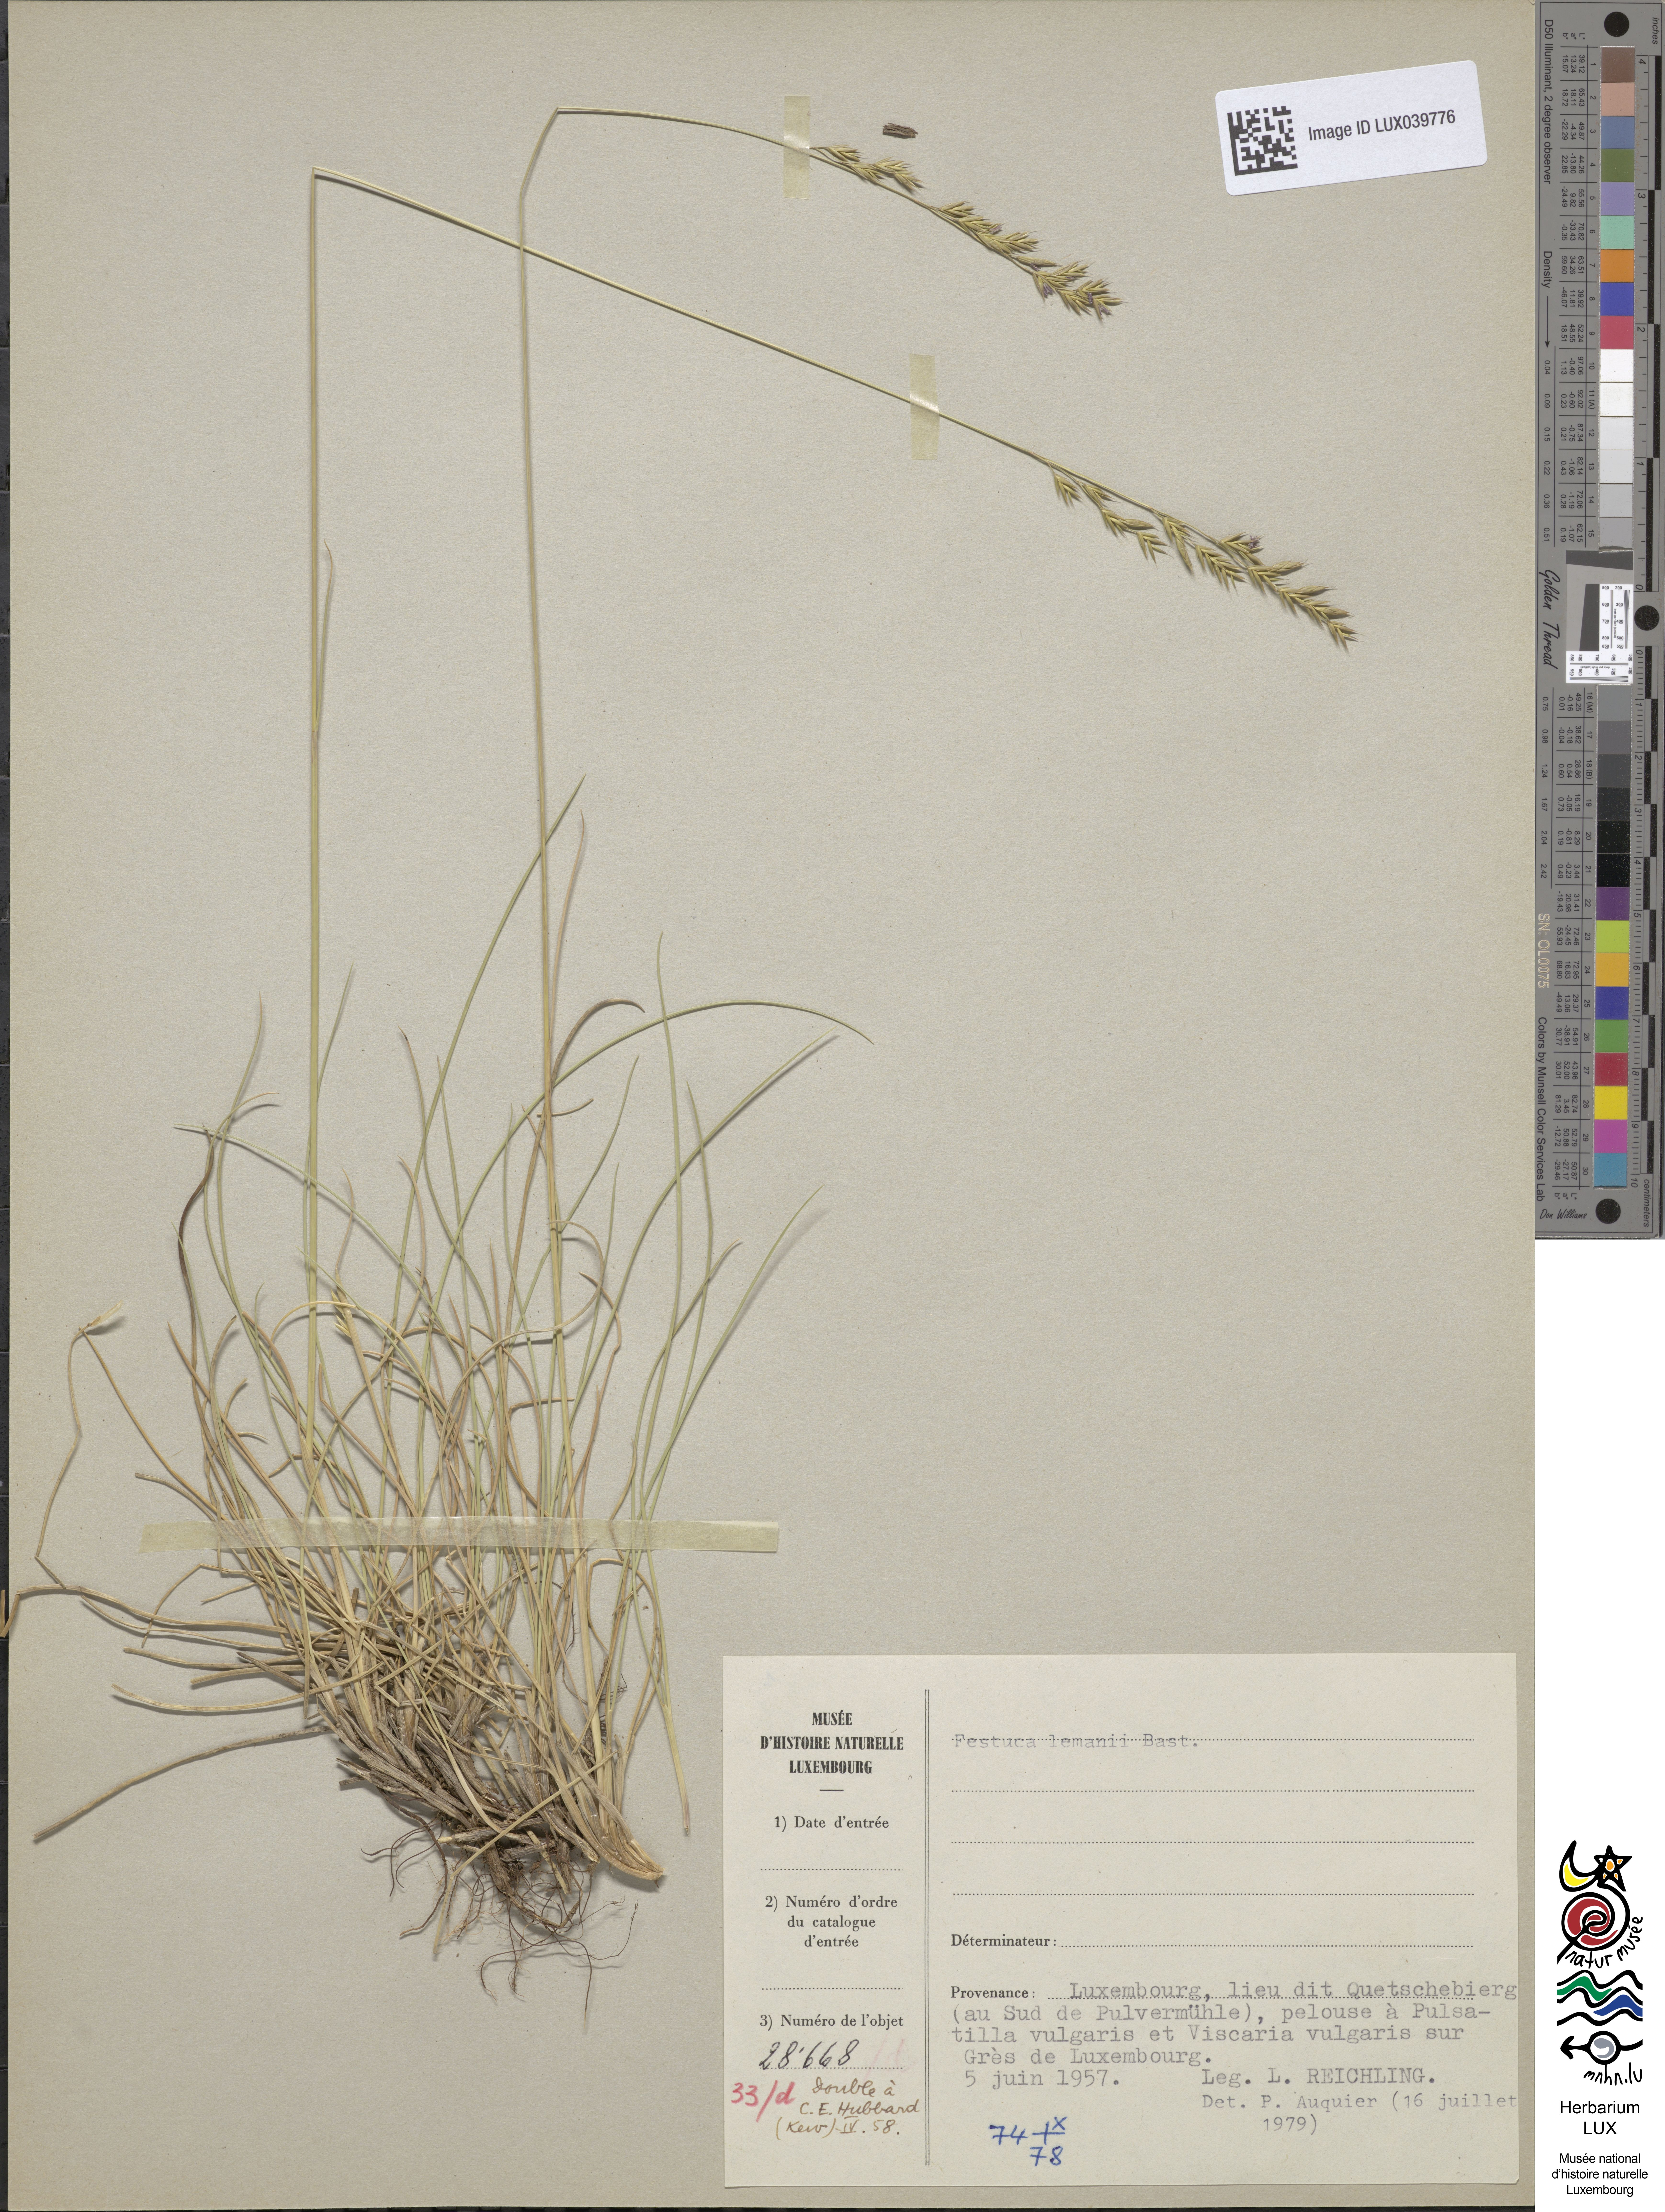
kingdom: Plantae
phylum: Tracheophyta
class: Liliopsida
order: Poales
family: Poaceae
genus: Festuca
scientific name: Festuca lemanii
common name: Confused fescue
